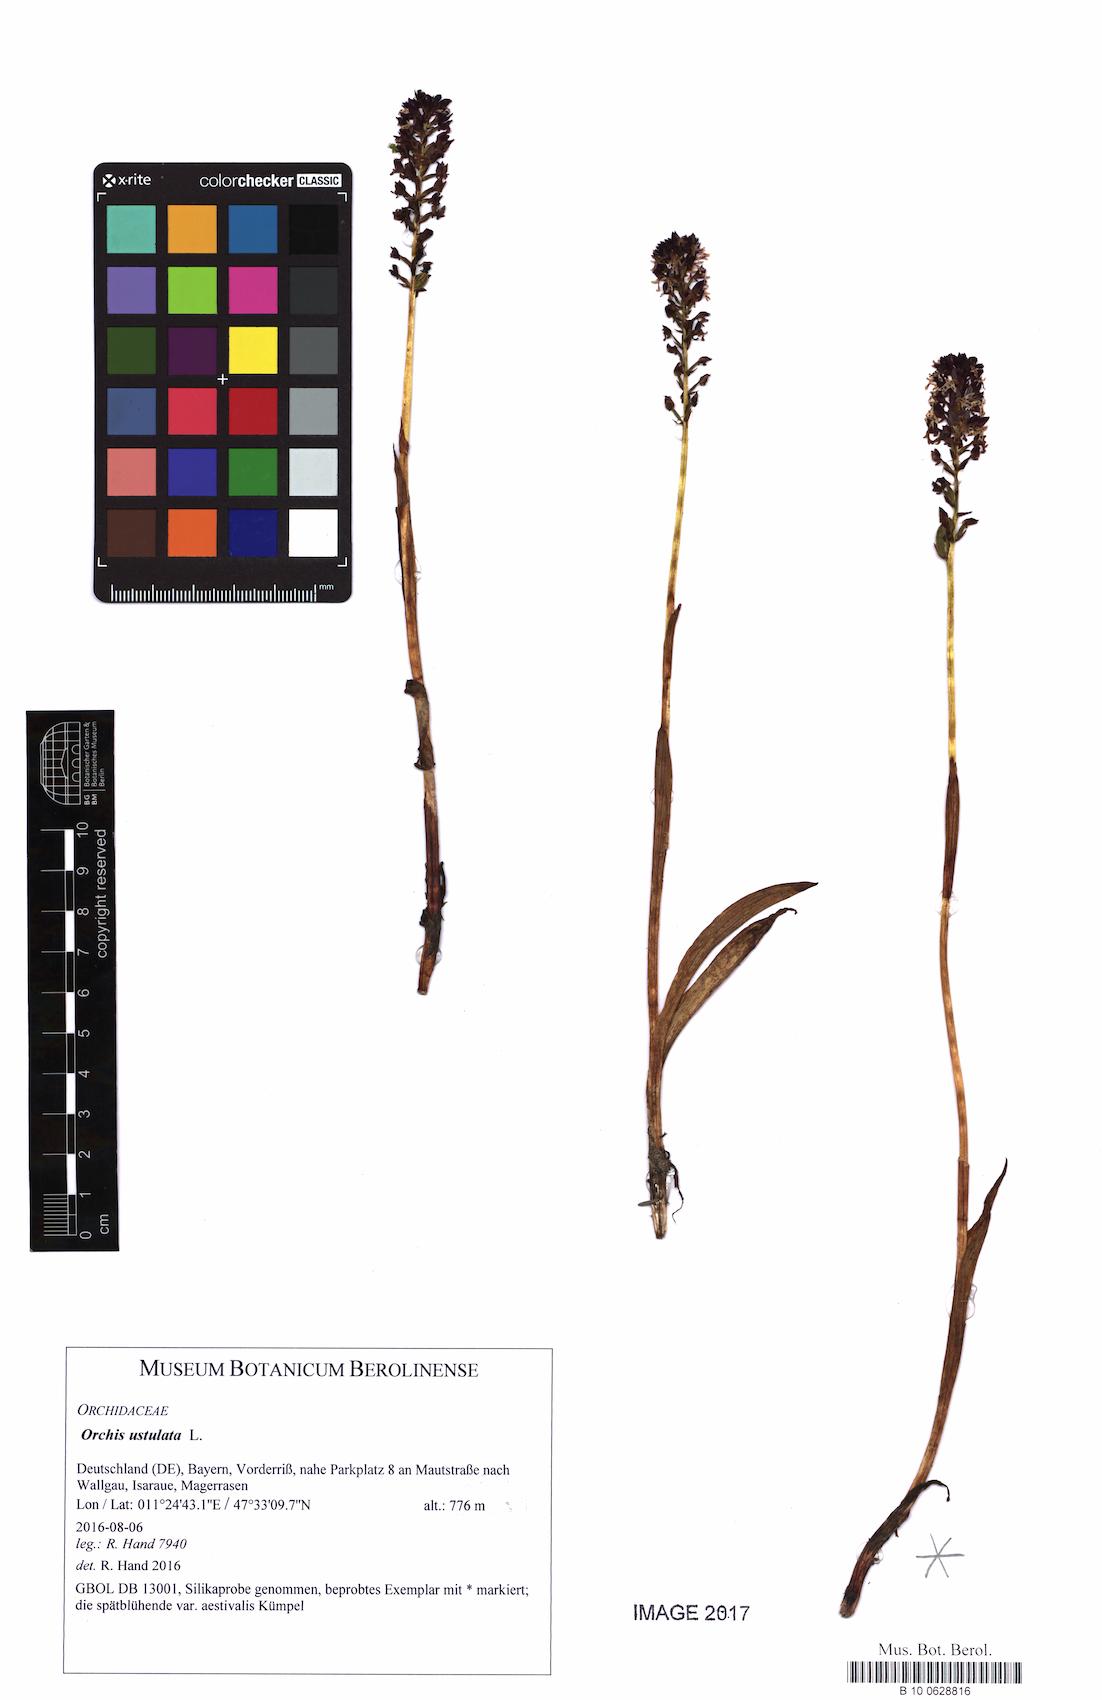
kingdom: Plantae
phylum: Tracheophyta
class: Liliopsida
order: Asparagales
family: Orchidaceae
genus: Neotinea
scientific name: Neotinea ustulata
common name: Burnt orchid
